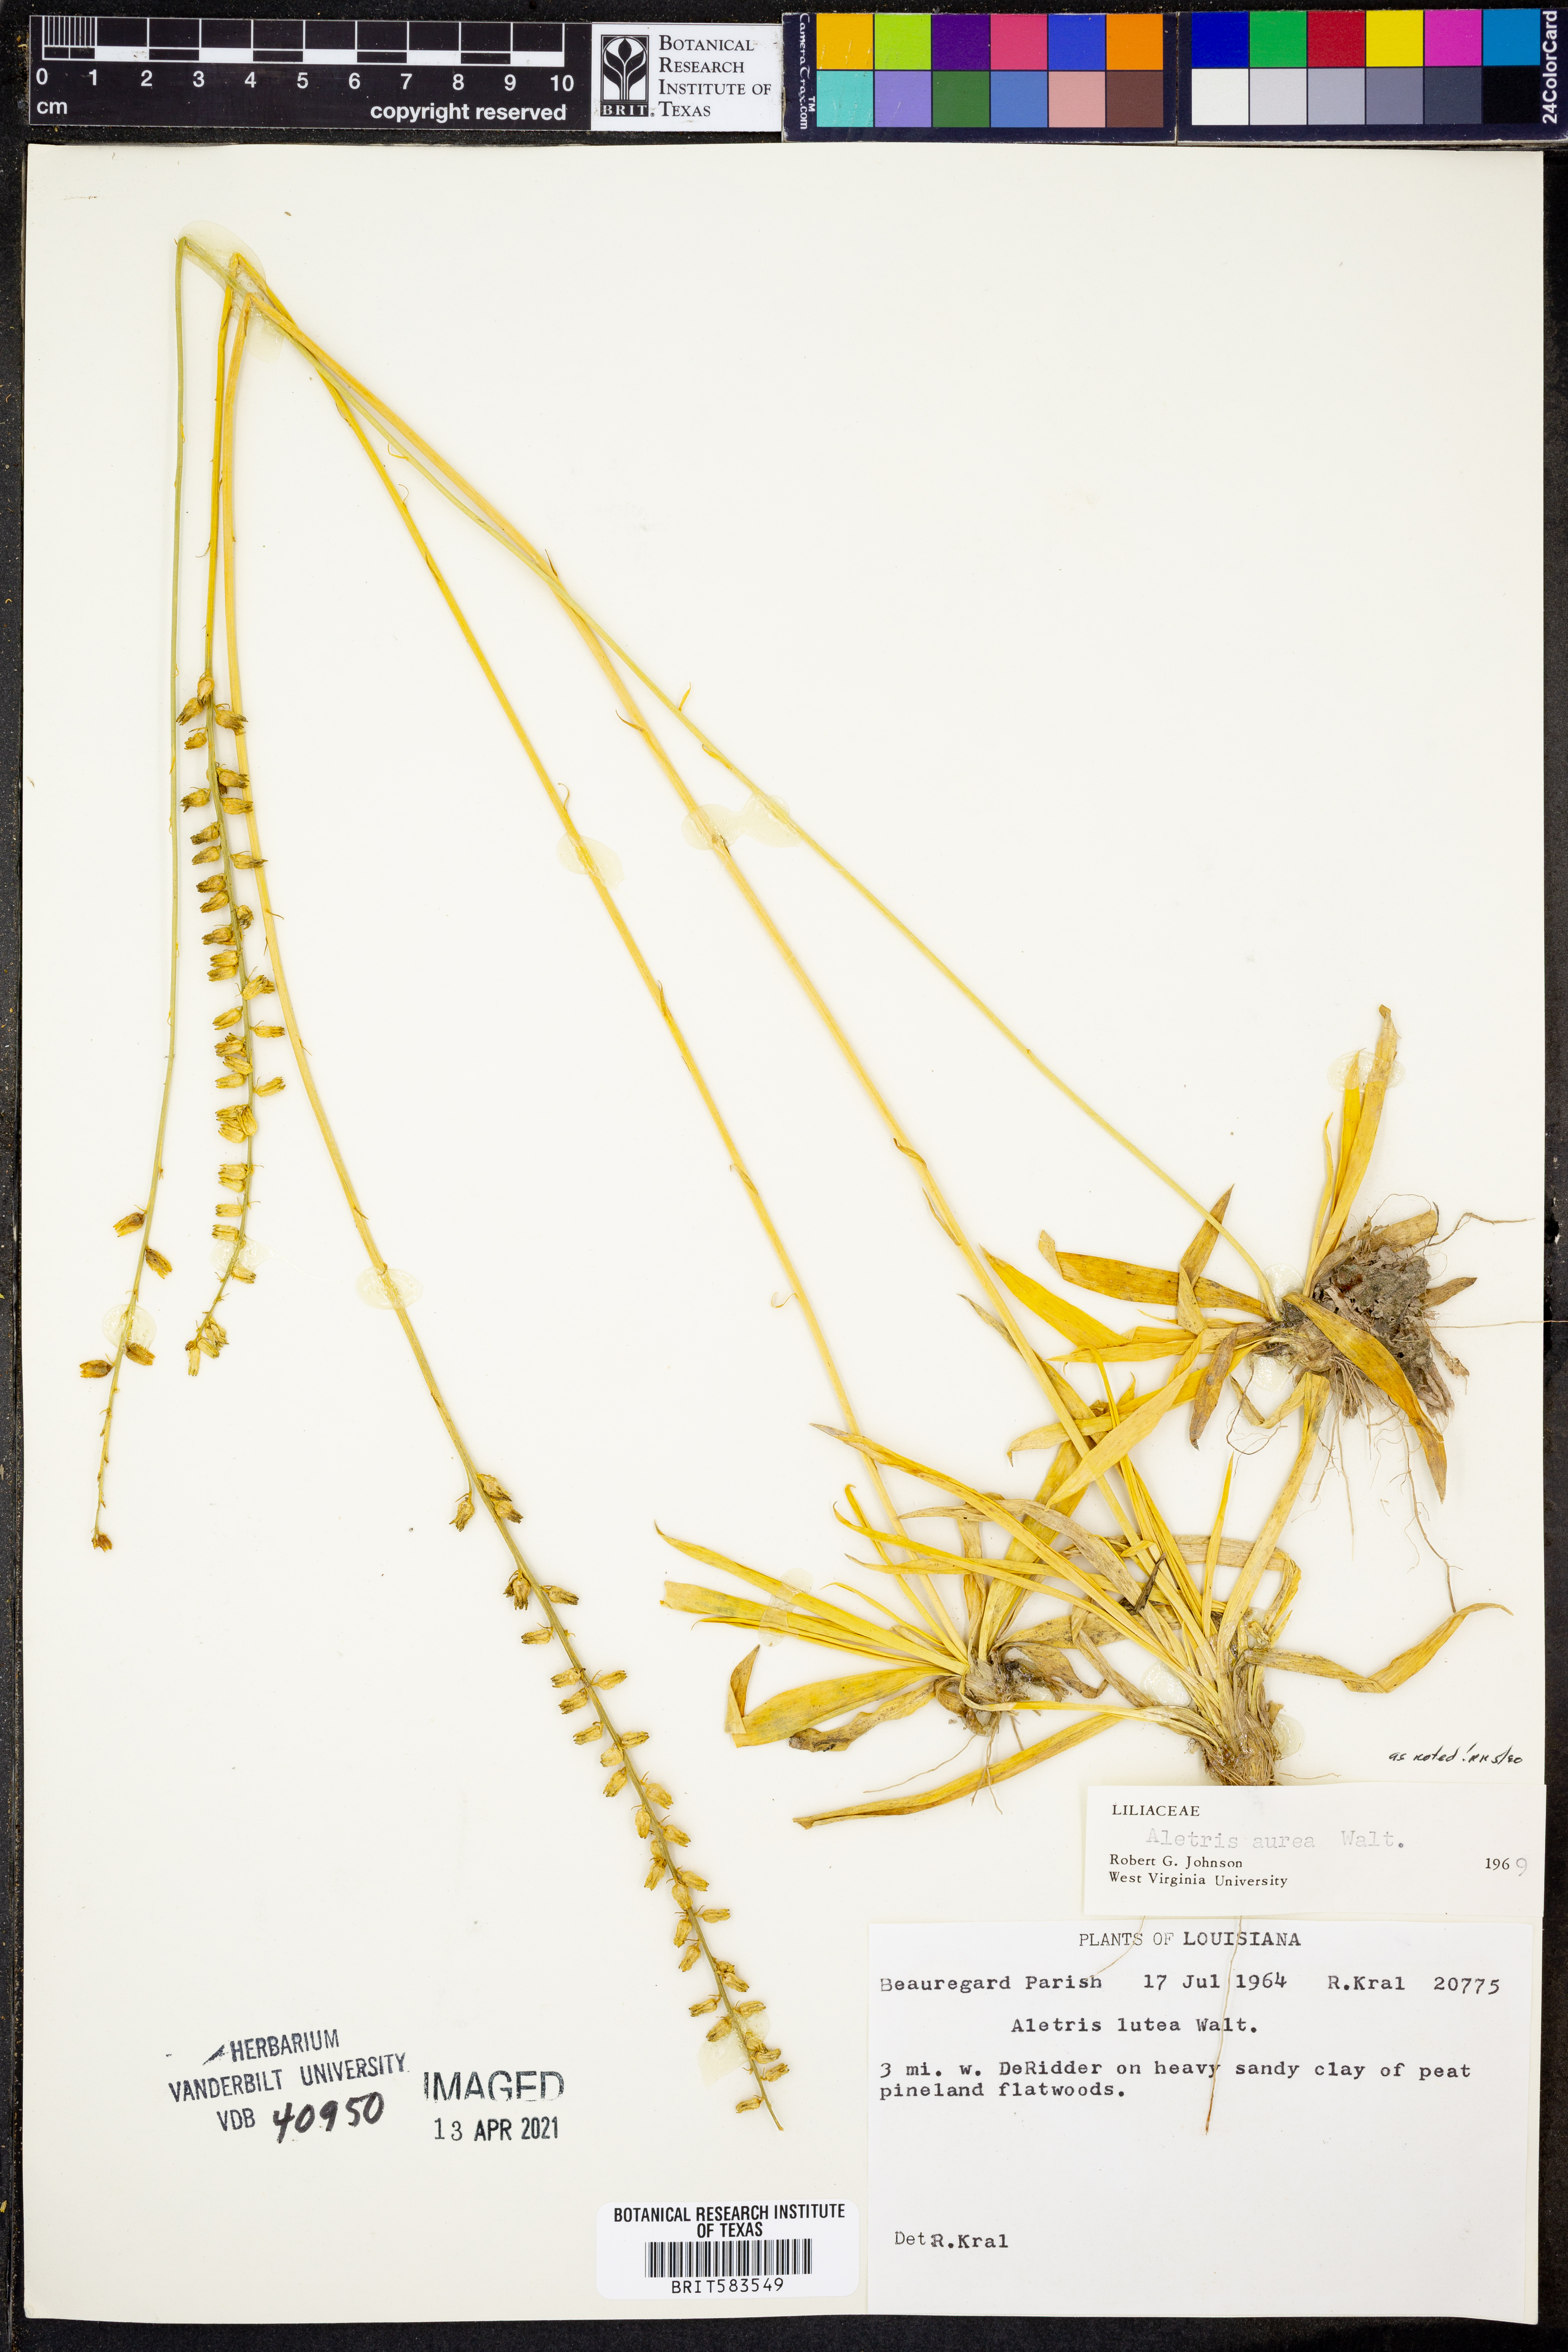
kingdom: Plantae
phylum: Tracheophyta
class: Liliopsida
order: Dioscoreales
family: Nartheciaceae
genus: Aletris
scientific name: Aletris aurea
